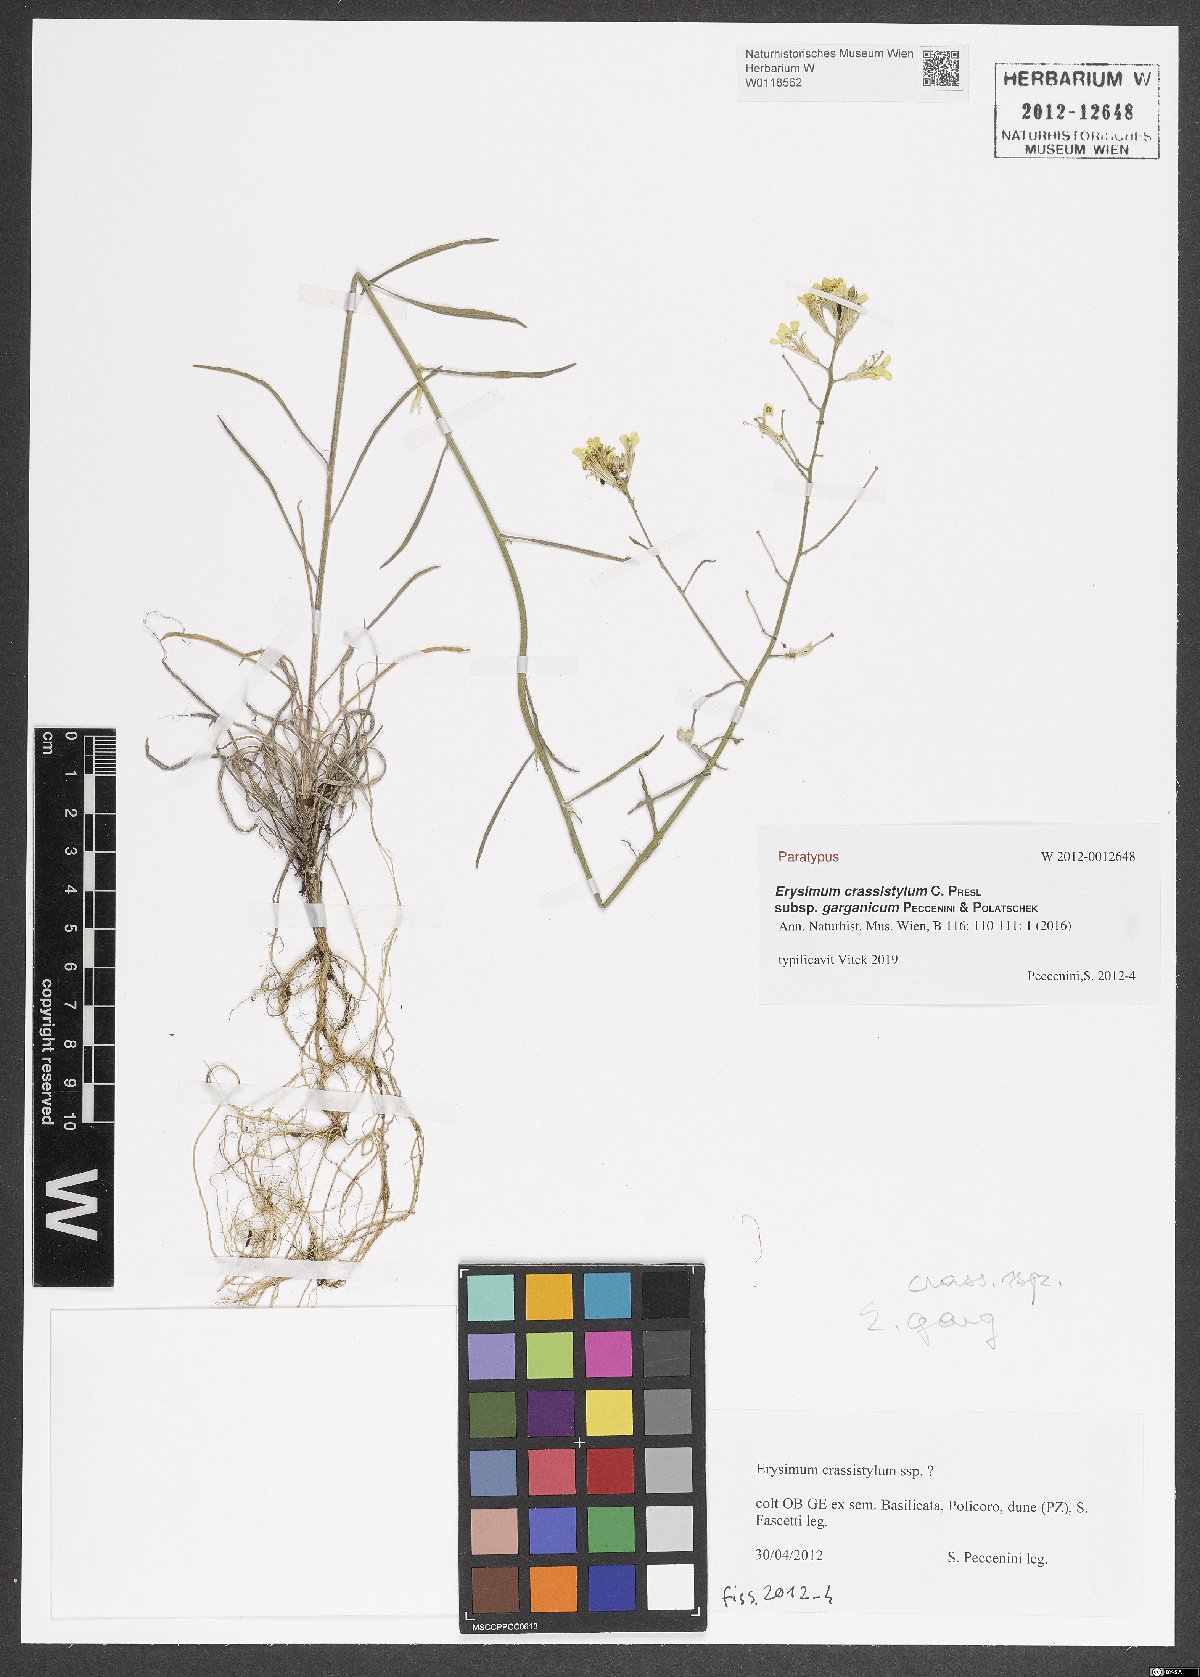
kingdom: Plantae
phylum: Tracheophyta
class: Magnoliopsida
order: Brassicales
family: Brassicaceae
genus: Erysimum
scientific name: Erysimum crassistylum
